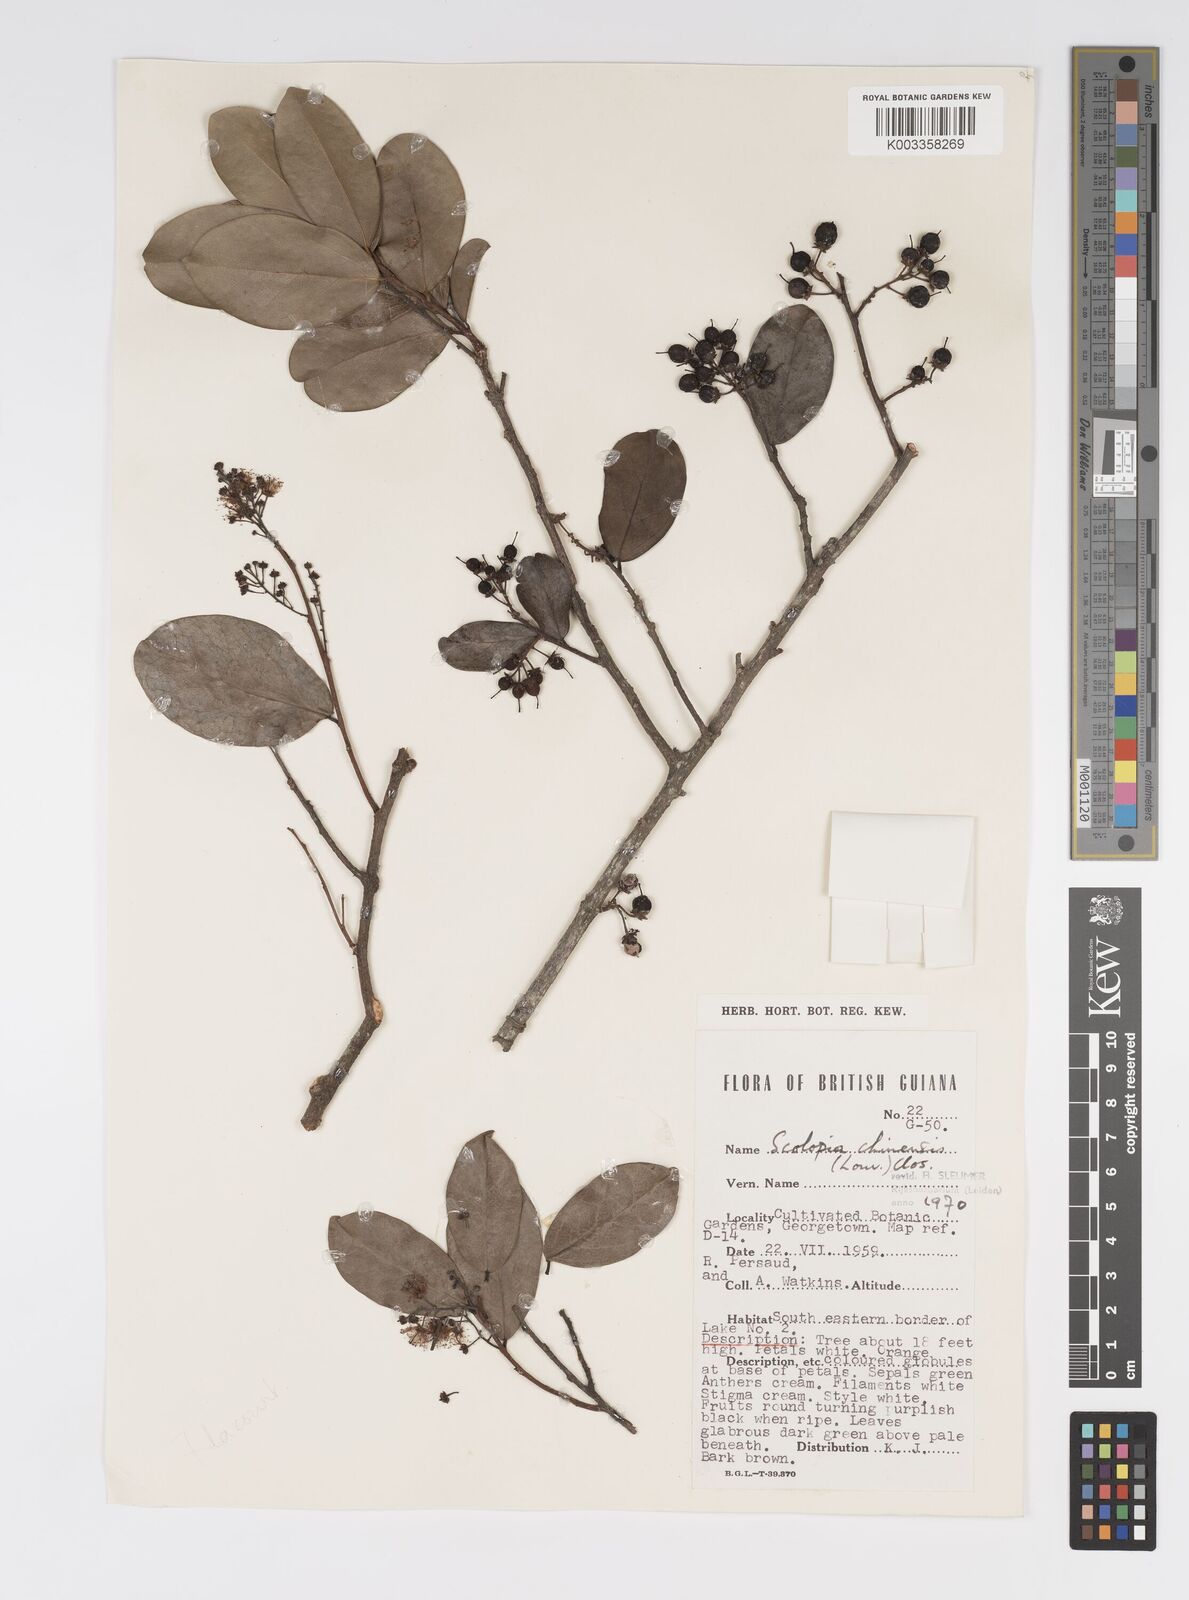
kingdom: Plantae
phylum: Tracheophyta
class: Magnoliopsida
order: Malpighiales
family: Salicaceae
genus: Scolopia
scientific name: Scolopia chinensis
